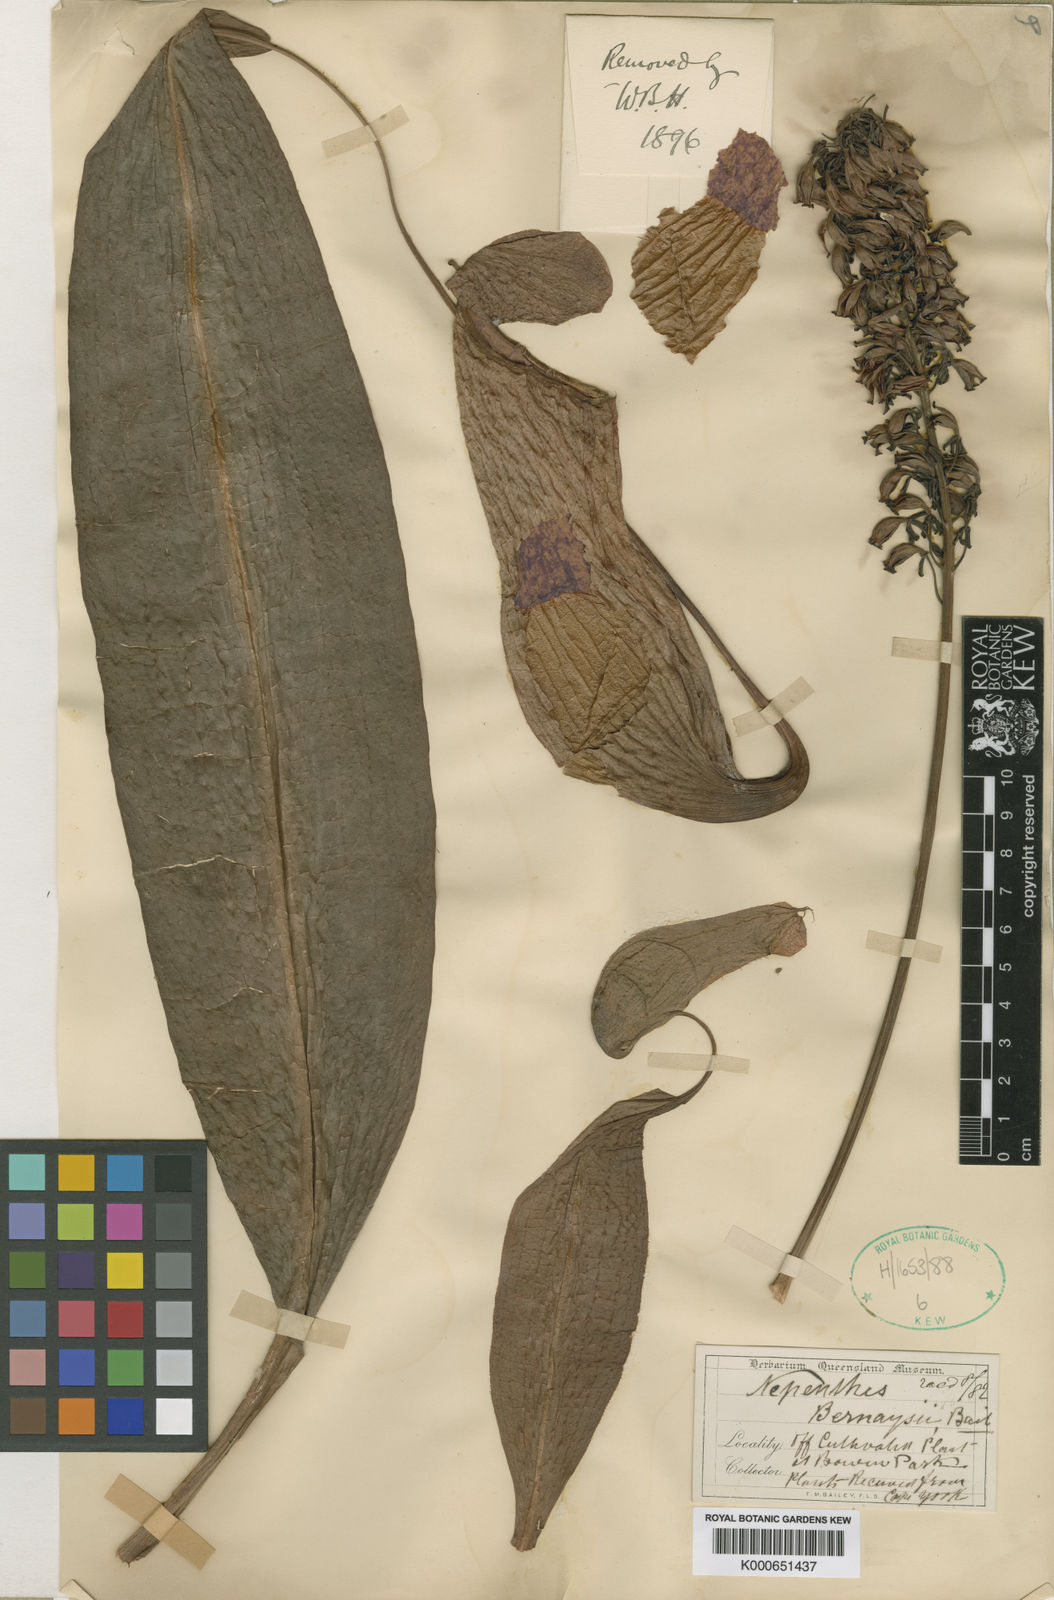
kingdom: Plantae
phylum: Tracheophyta
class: Magnoliopsida
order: Caryophyllales
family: Nepenthaceae
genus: Nepenthes
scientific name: Nepenthes mirabilis
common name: Tropical pitcherplant
